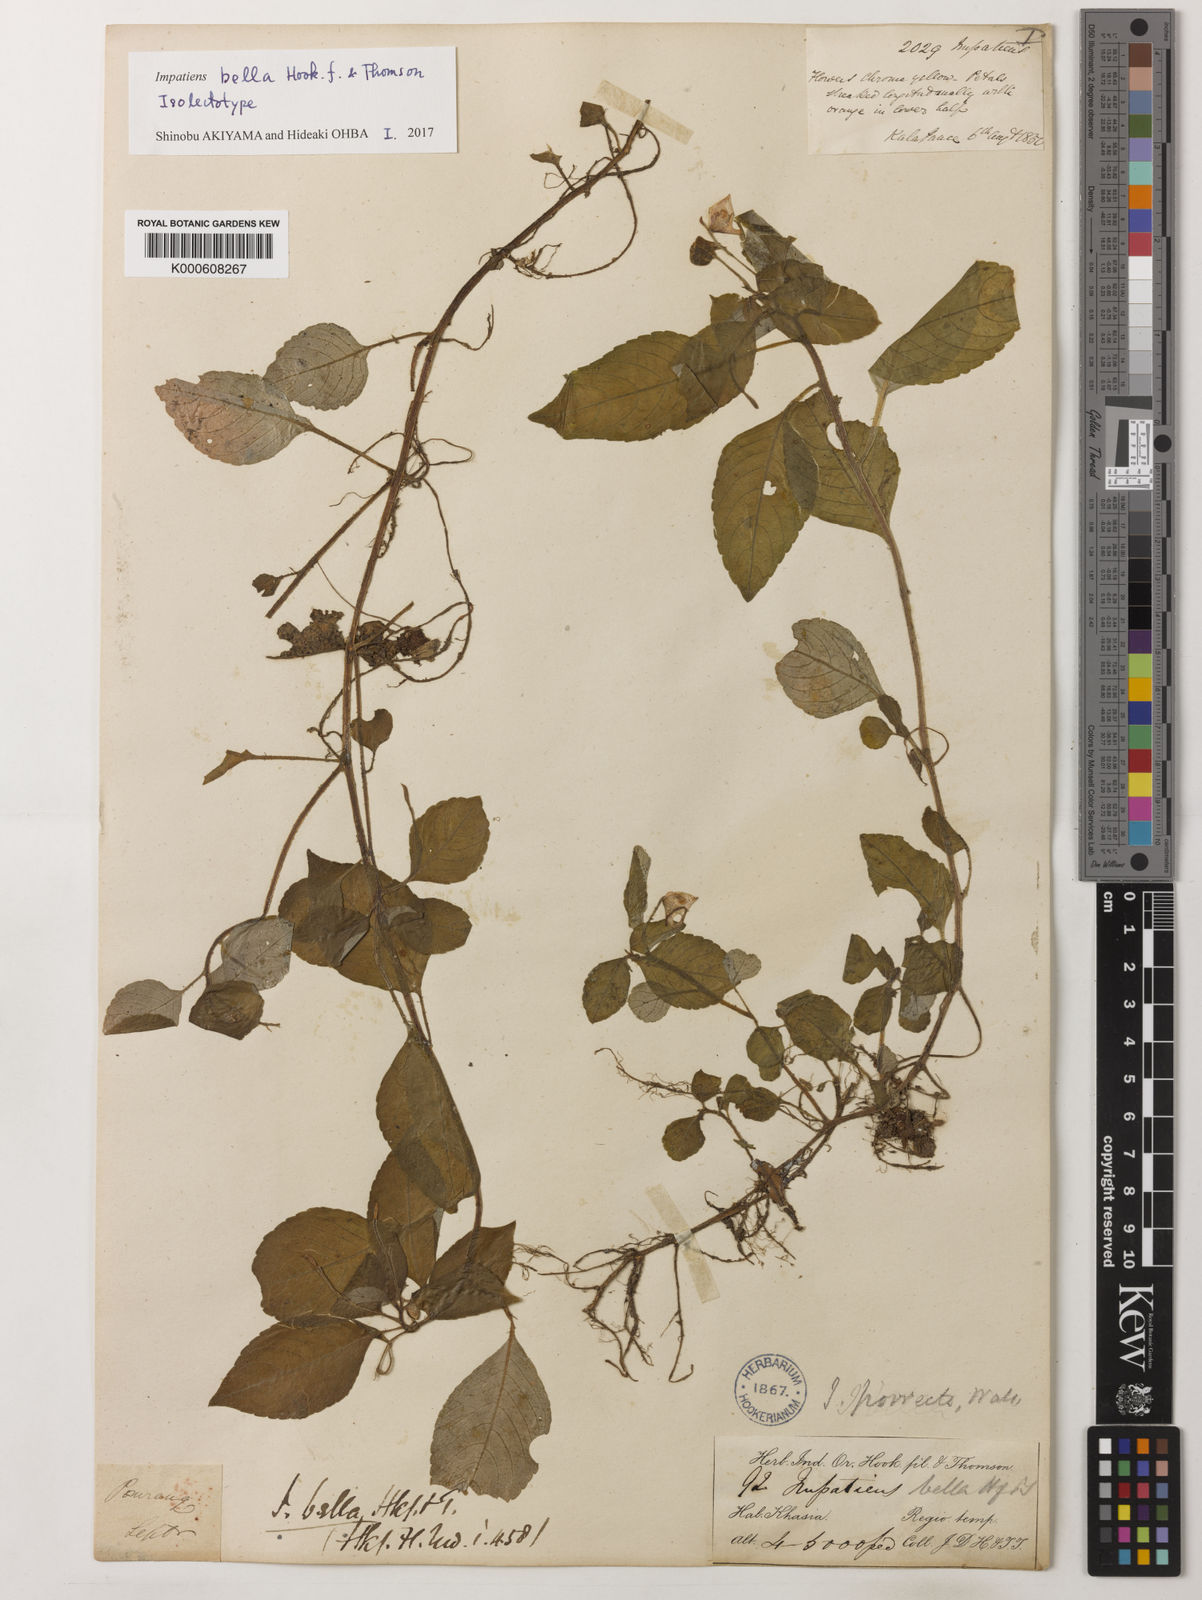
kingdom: Plantae
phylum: Tracheophyta
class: Magnoliopsida
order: Ericales
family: Balsaminaceae
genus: Impatiens
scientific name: Impatiens
